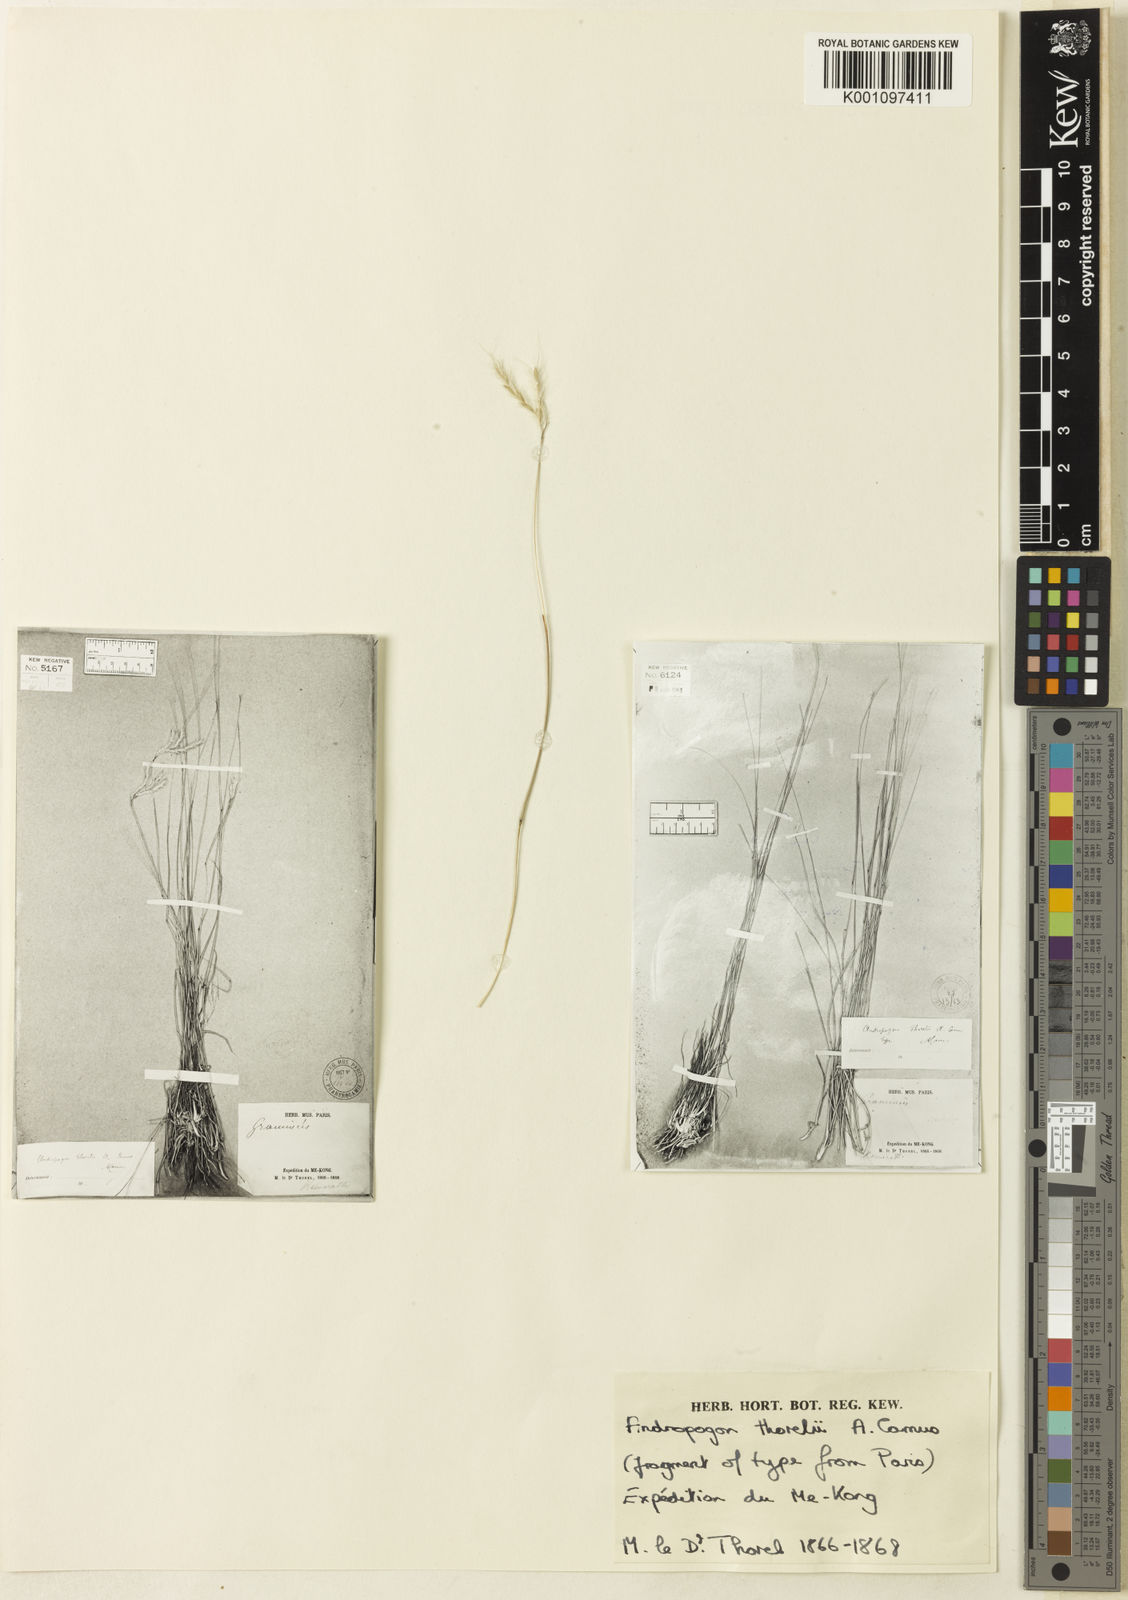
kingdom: Plantae
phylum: Tracheophyta
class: Liliopsida
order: Poales
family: Poaceae
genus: Andropogon
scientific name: Andropogon thorelii
